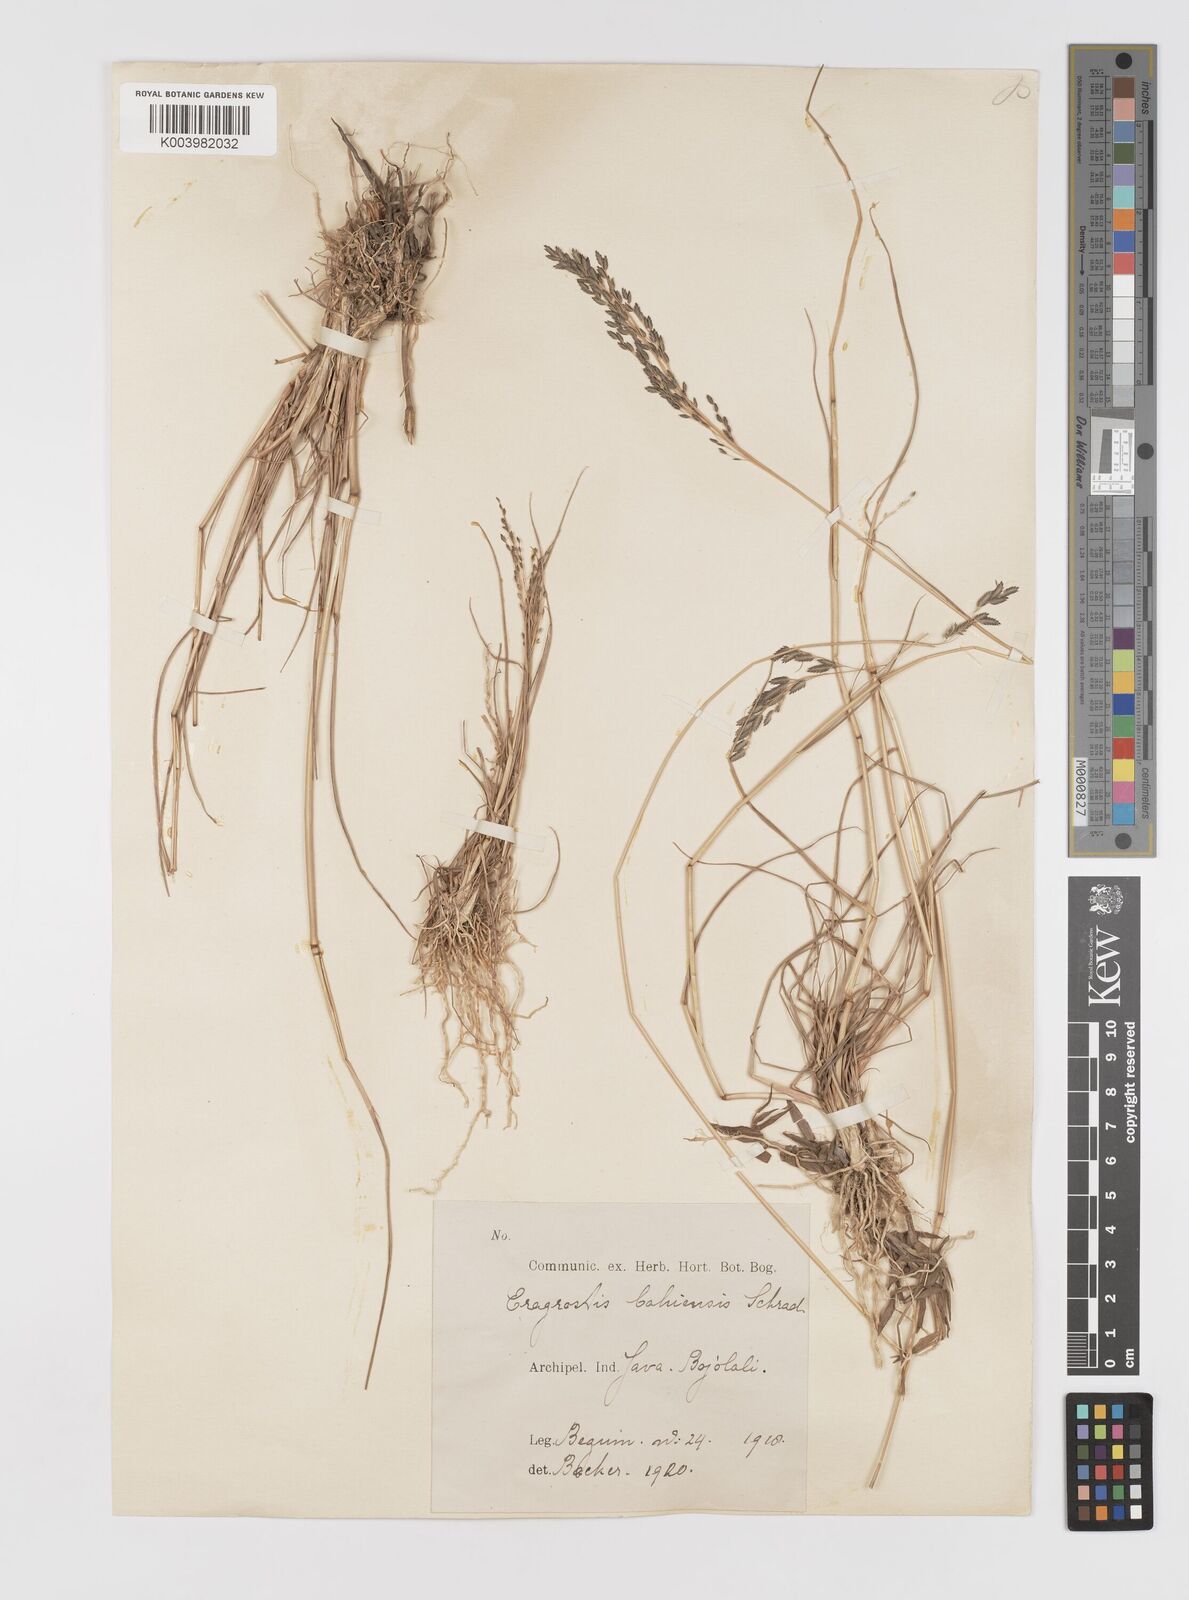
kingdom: Plantae
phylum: Tracheophyta
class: Liliopsida
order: Poales
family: Poaceae
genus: Eragrostis
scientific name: Eragrostis atrovirens
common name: Thalia lovegrass
